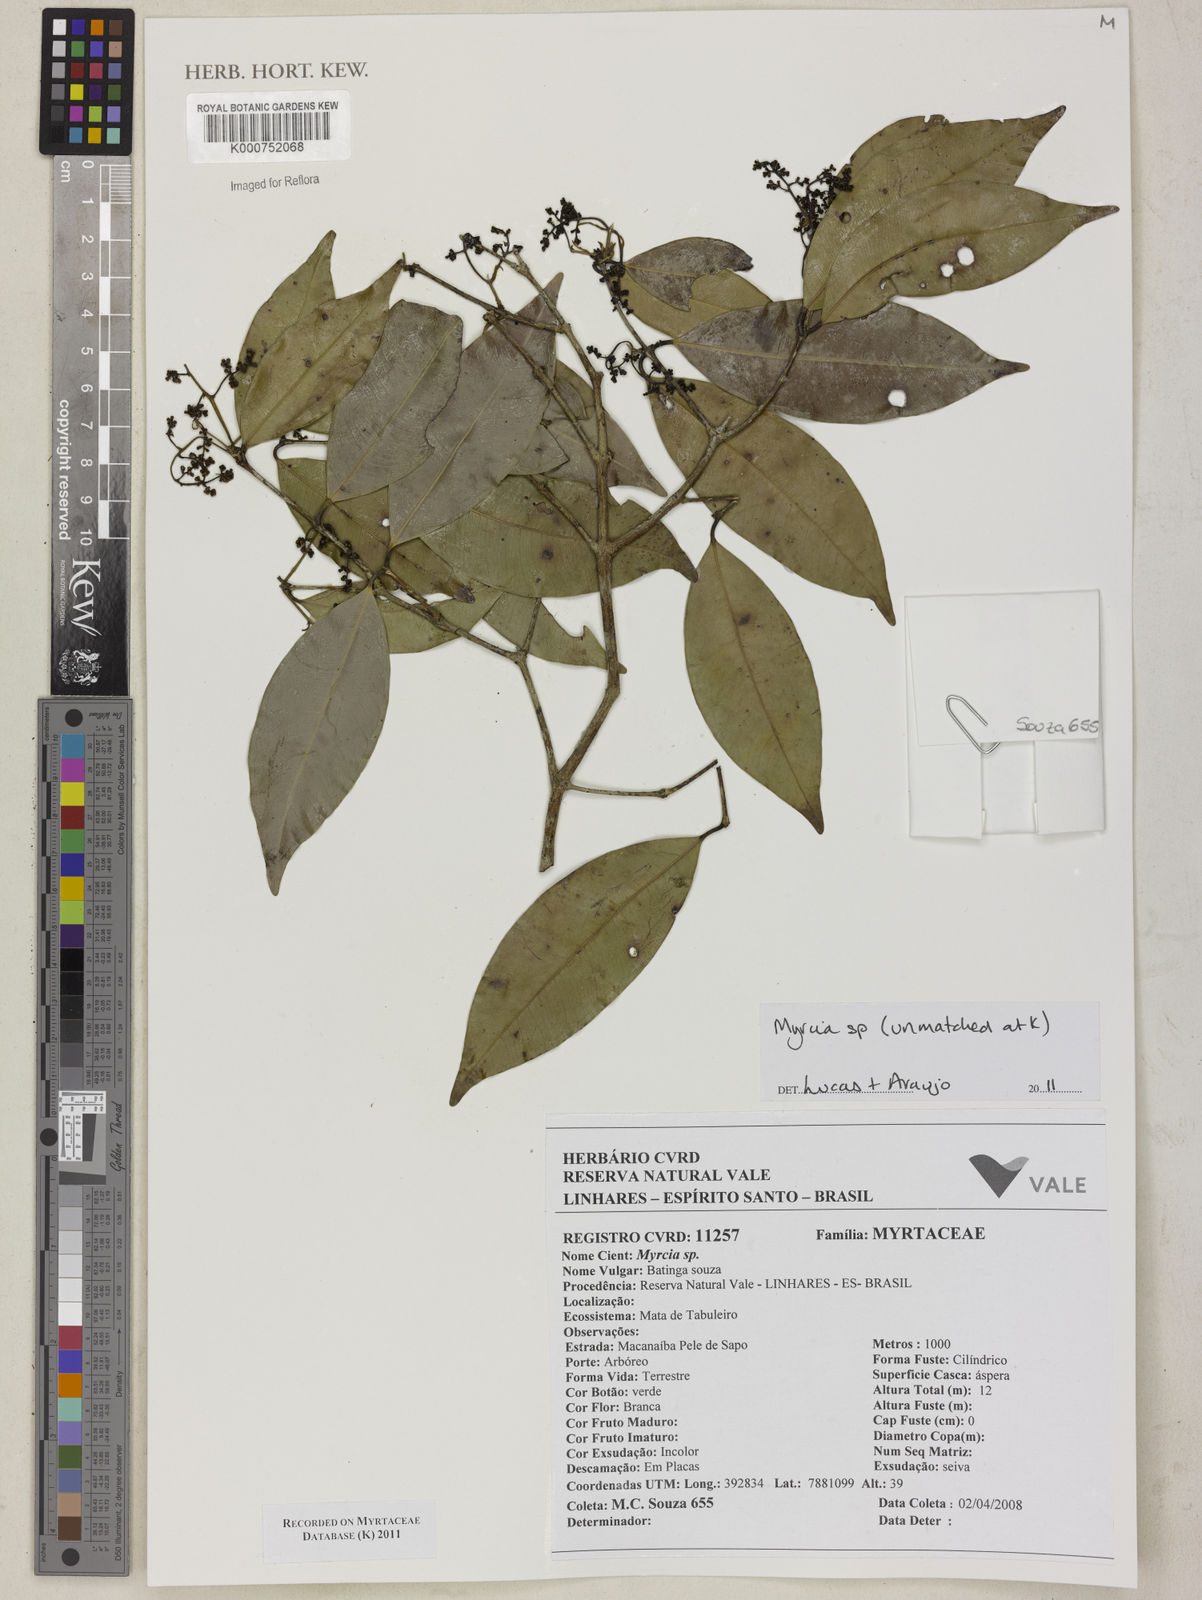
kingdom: Plantae
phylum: Tracheophyta
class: Magnoliopsida
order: Myrtales
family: Myrtaceae
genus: Myrcia
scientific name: Myrcia
